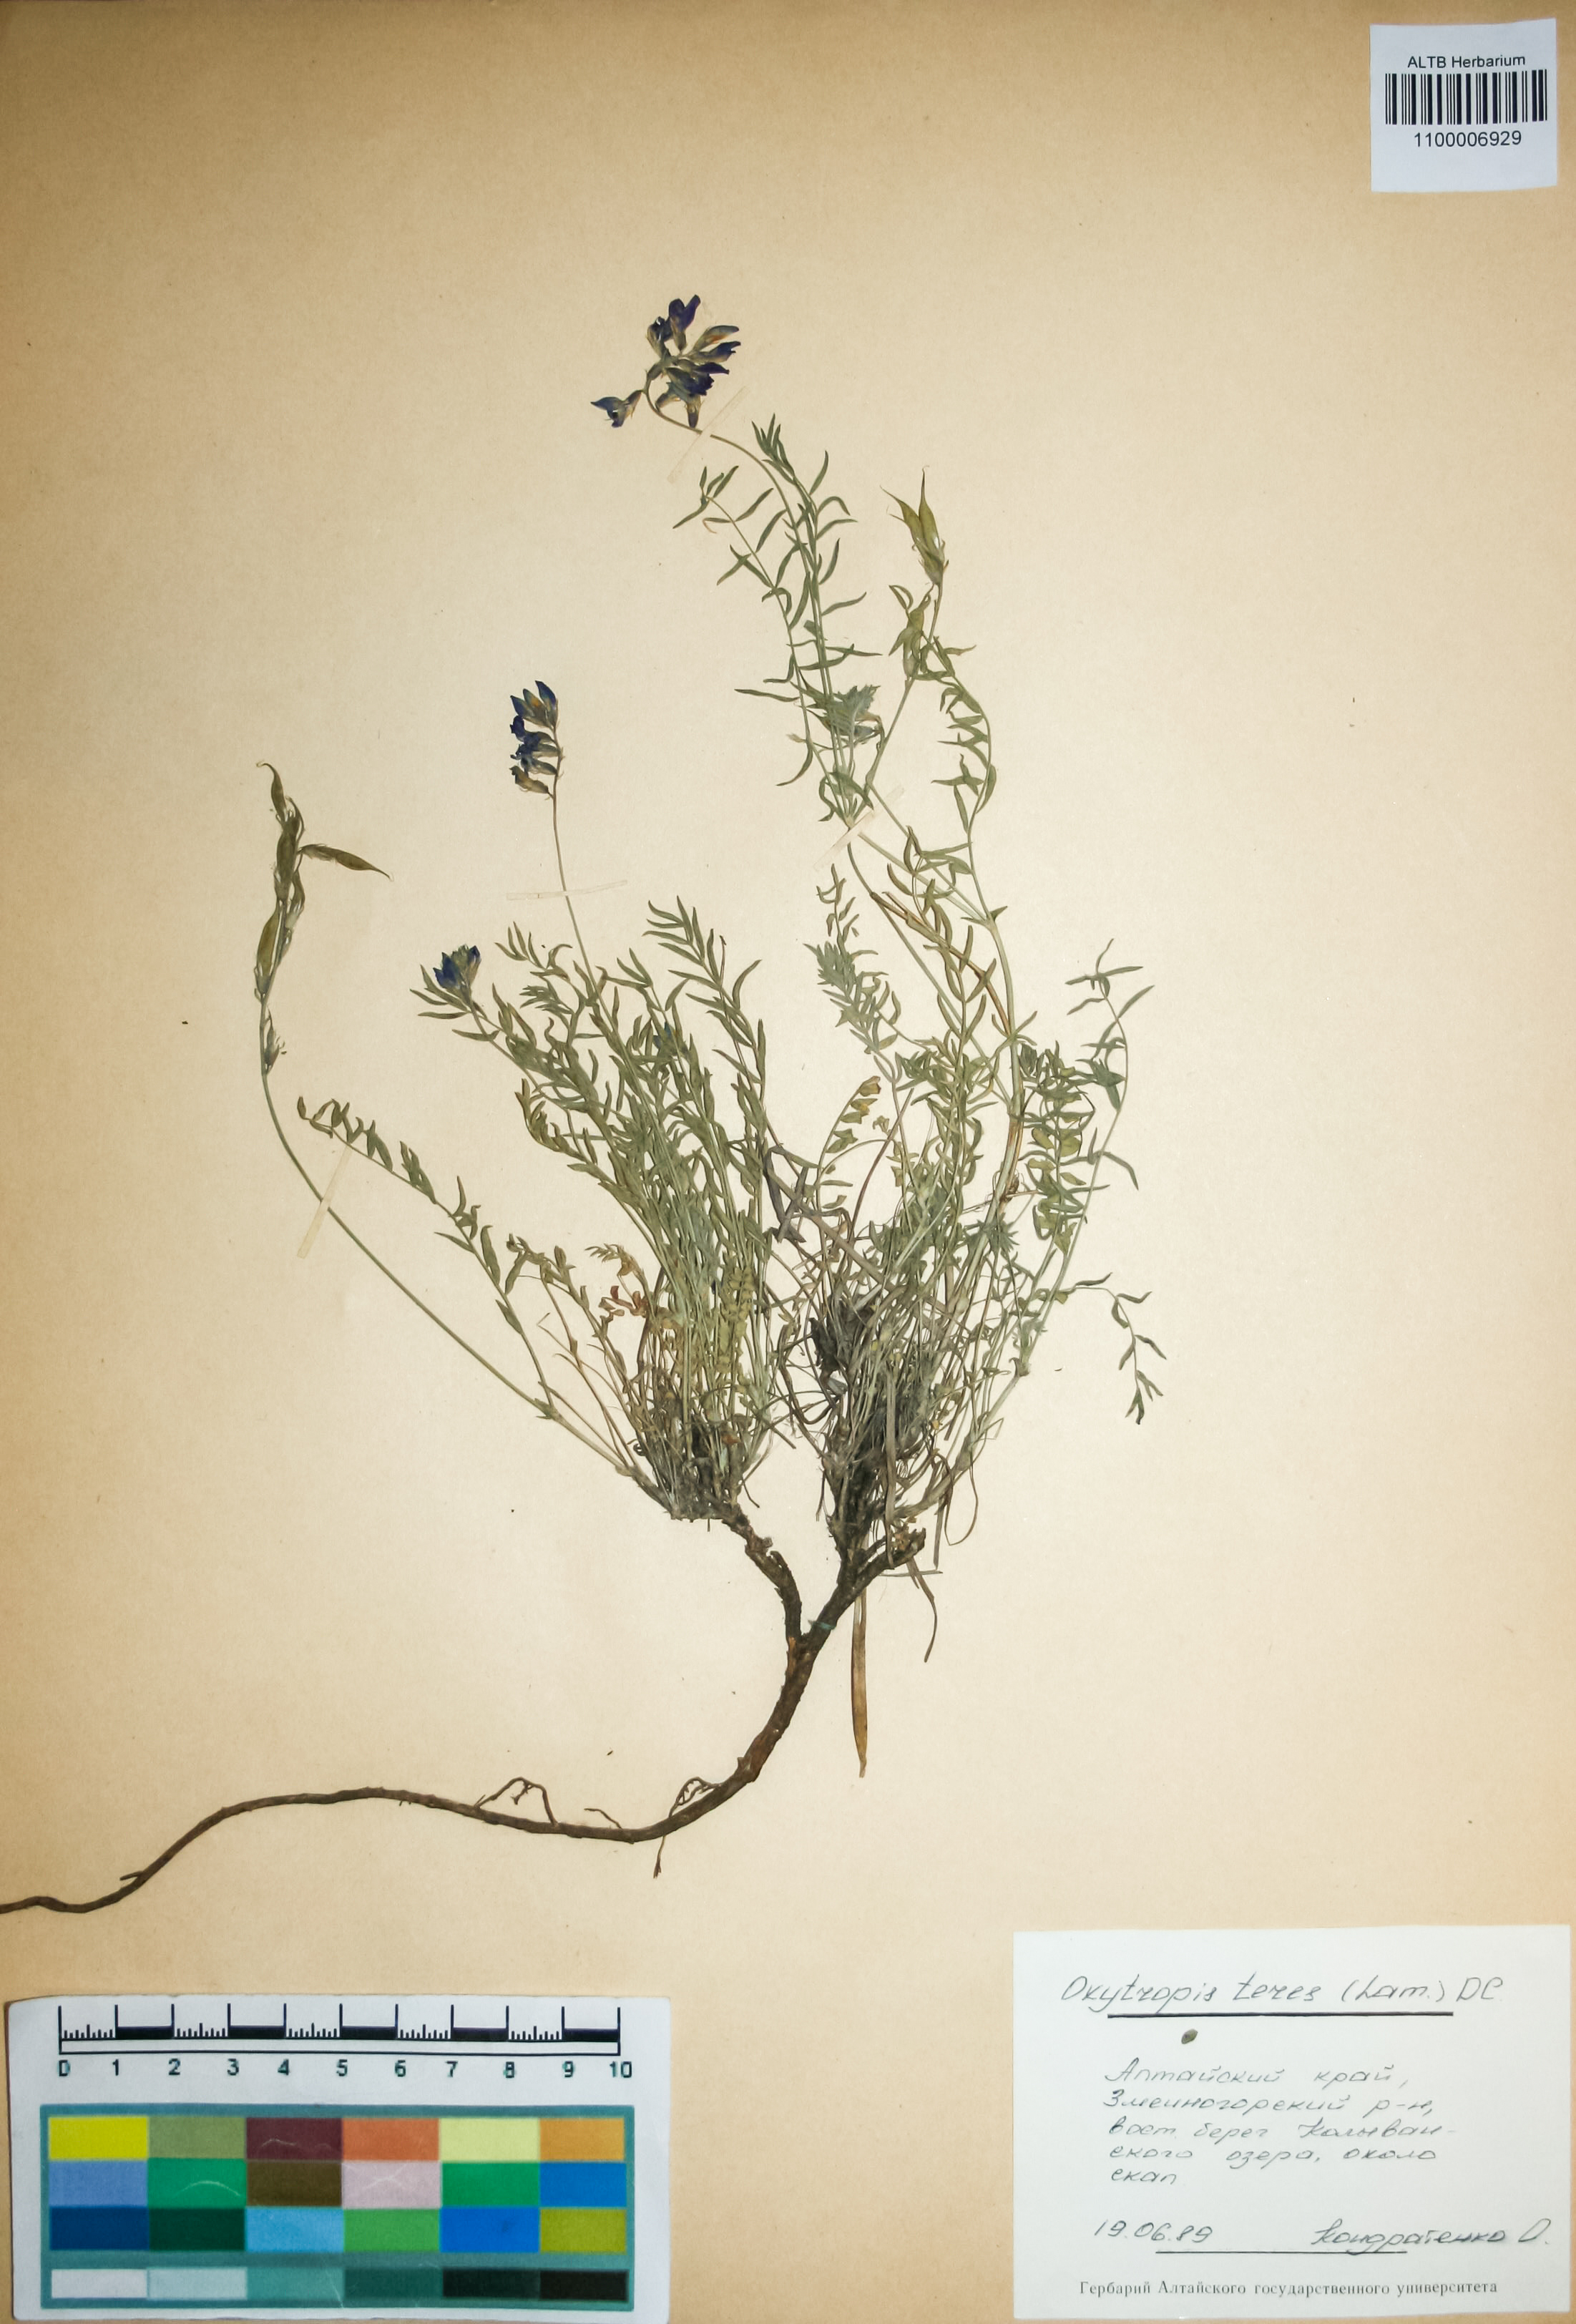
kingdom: Plantae
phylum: Tracheophyta
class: Magnoliopsida
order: Fabales
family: Fabaceae
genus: Oxytropis
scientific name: Oxytropis teres
